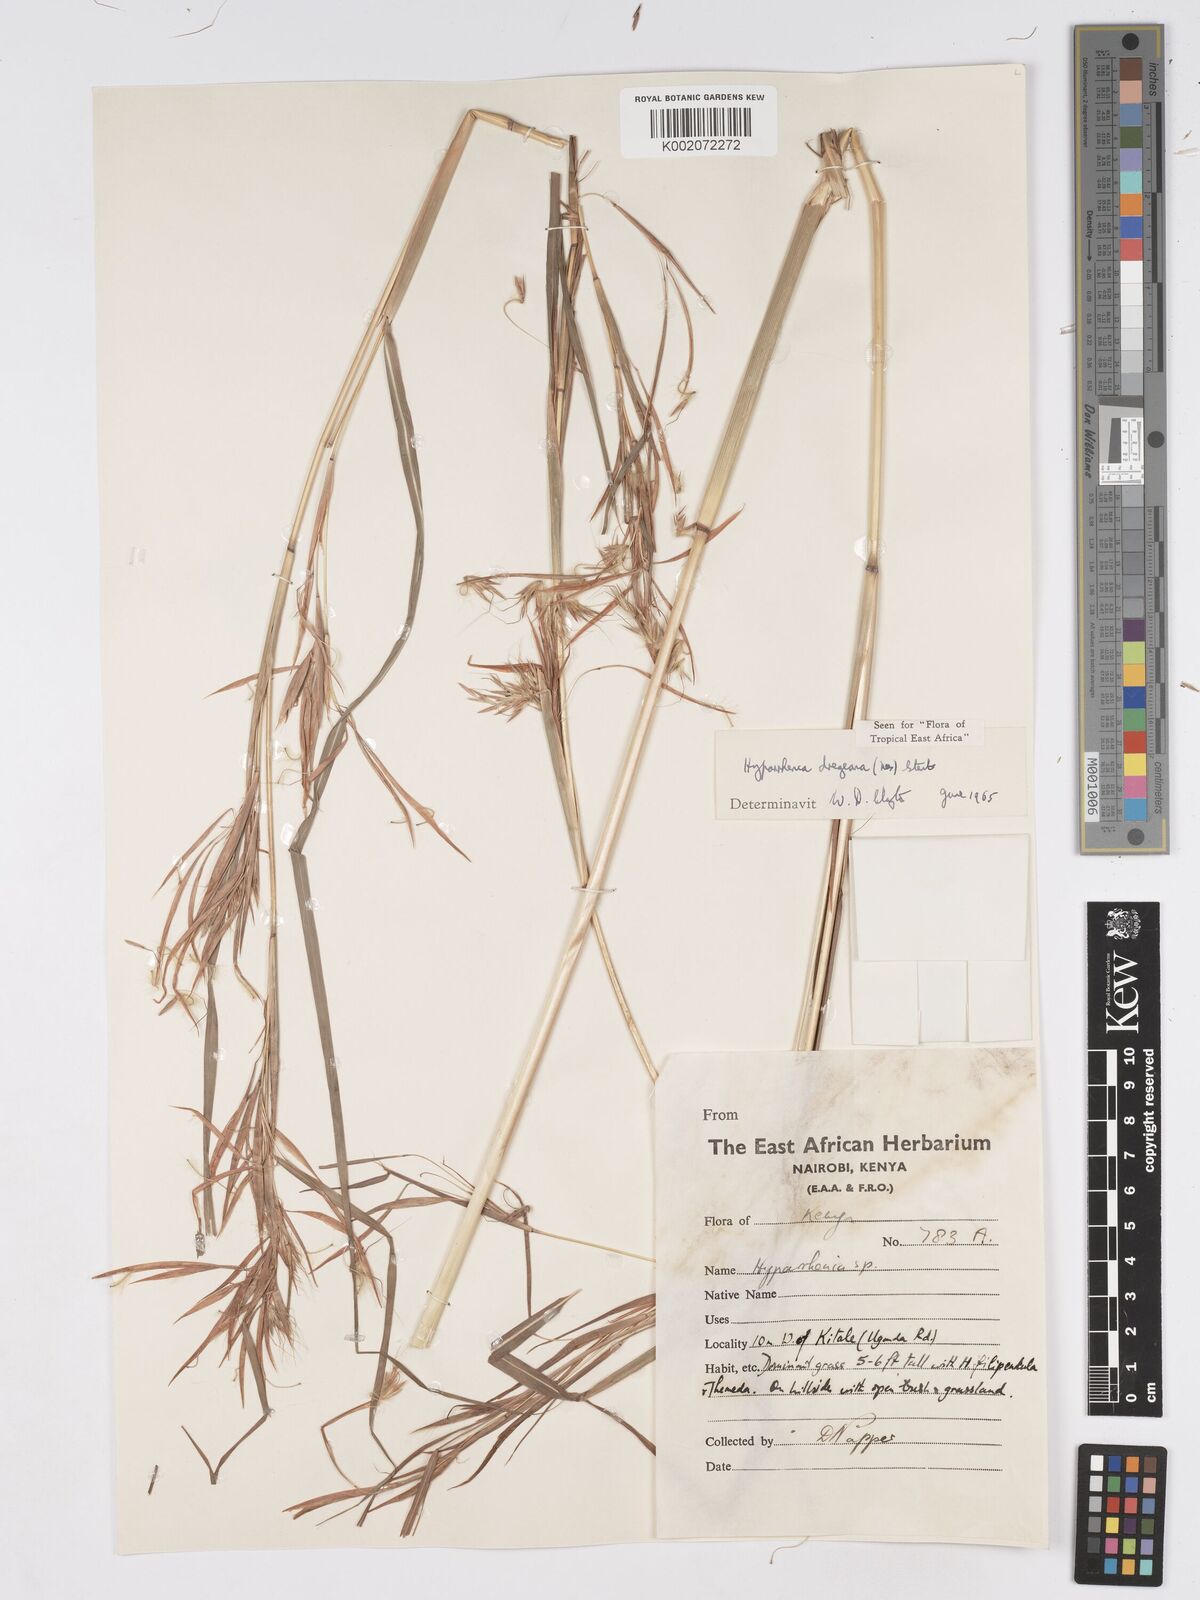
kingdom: Plantae
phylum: Tracheophyta
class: Liliopsida
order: Poales
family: Poaceae
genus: Hyparrhenia
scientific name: Hyparrhenia dregeana
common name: Silky thatching grass
